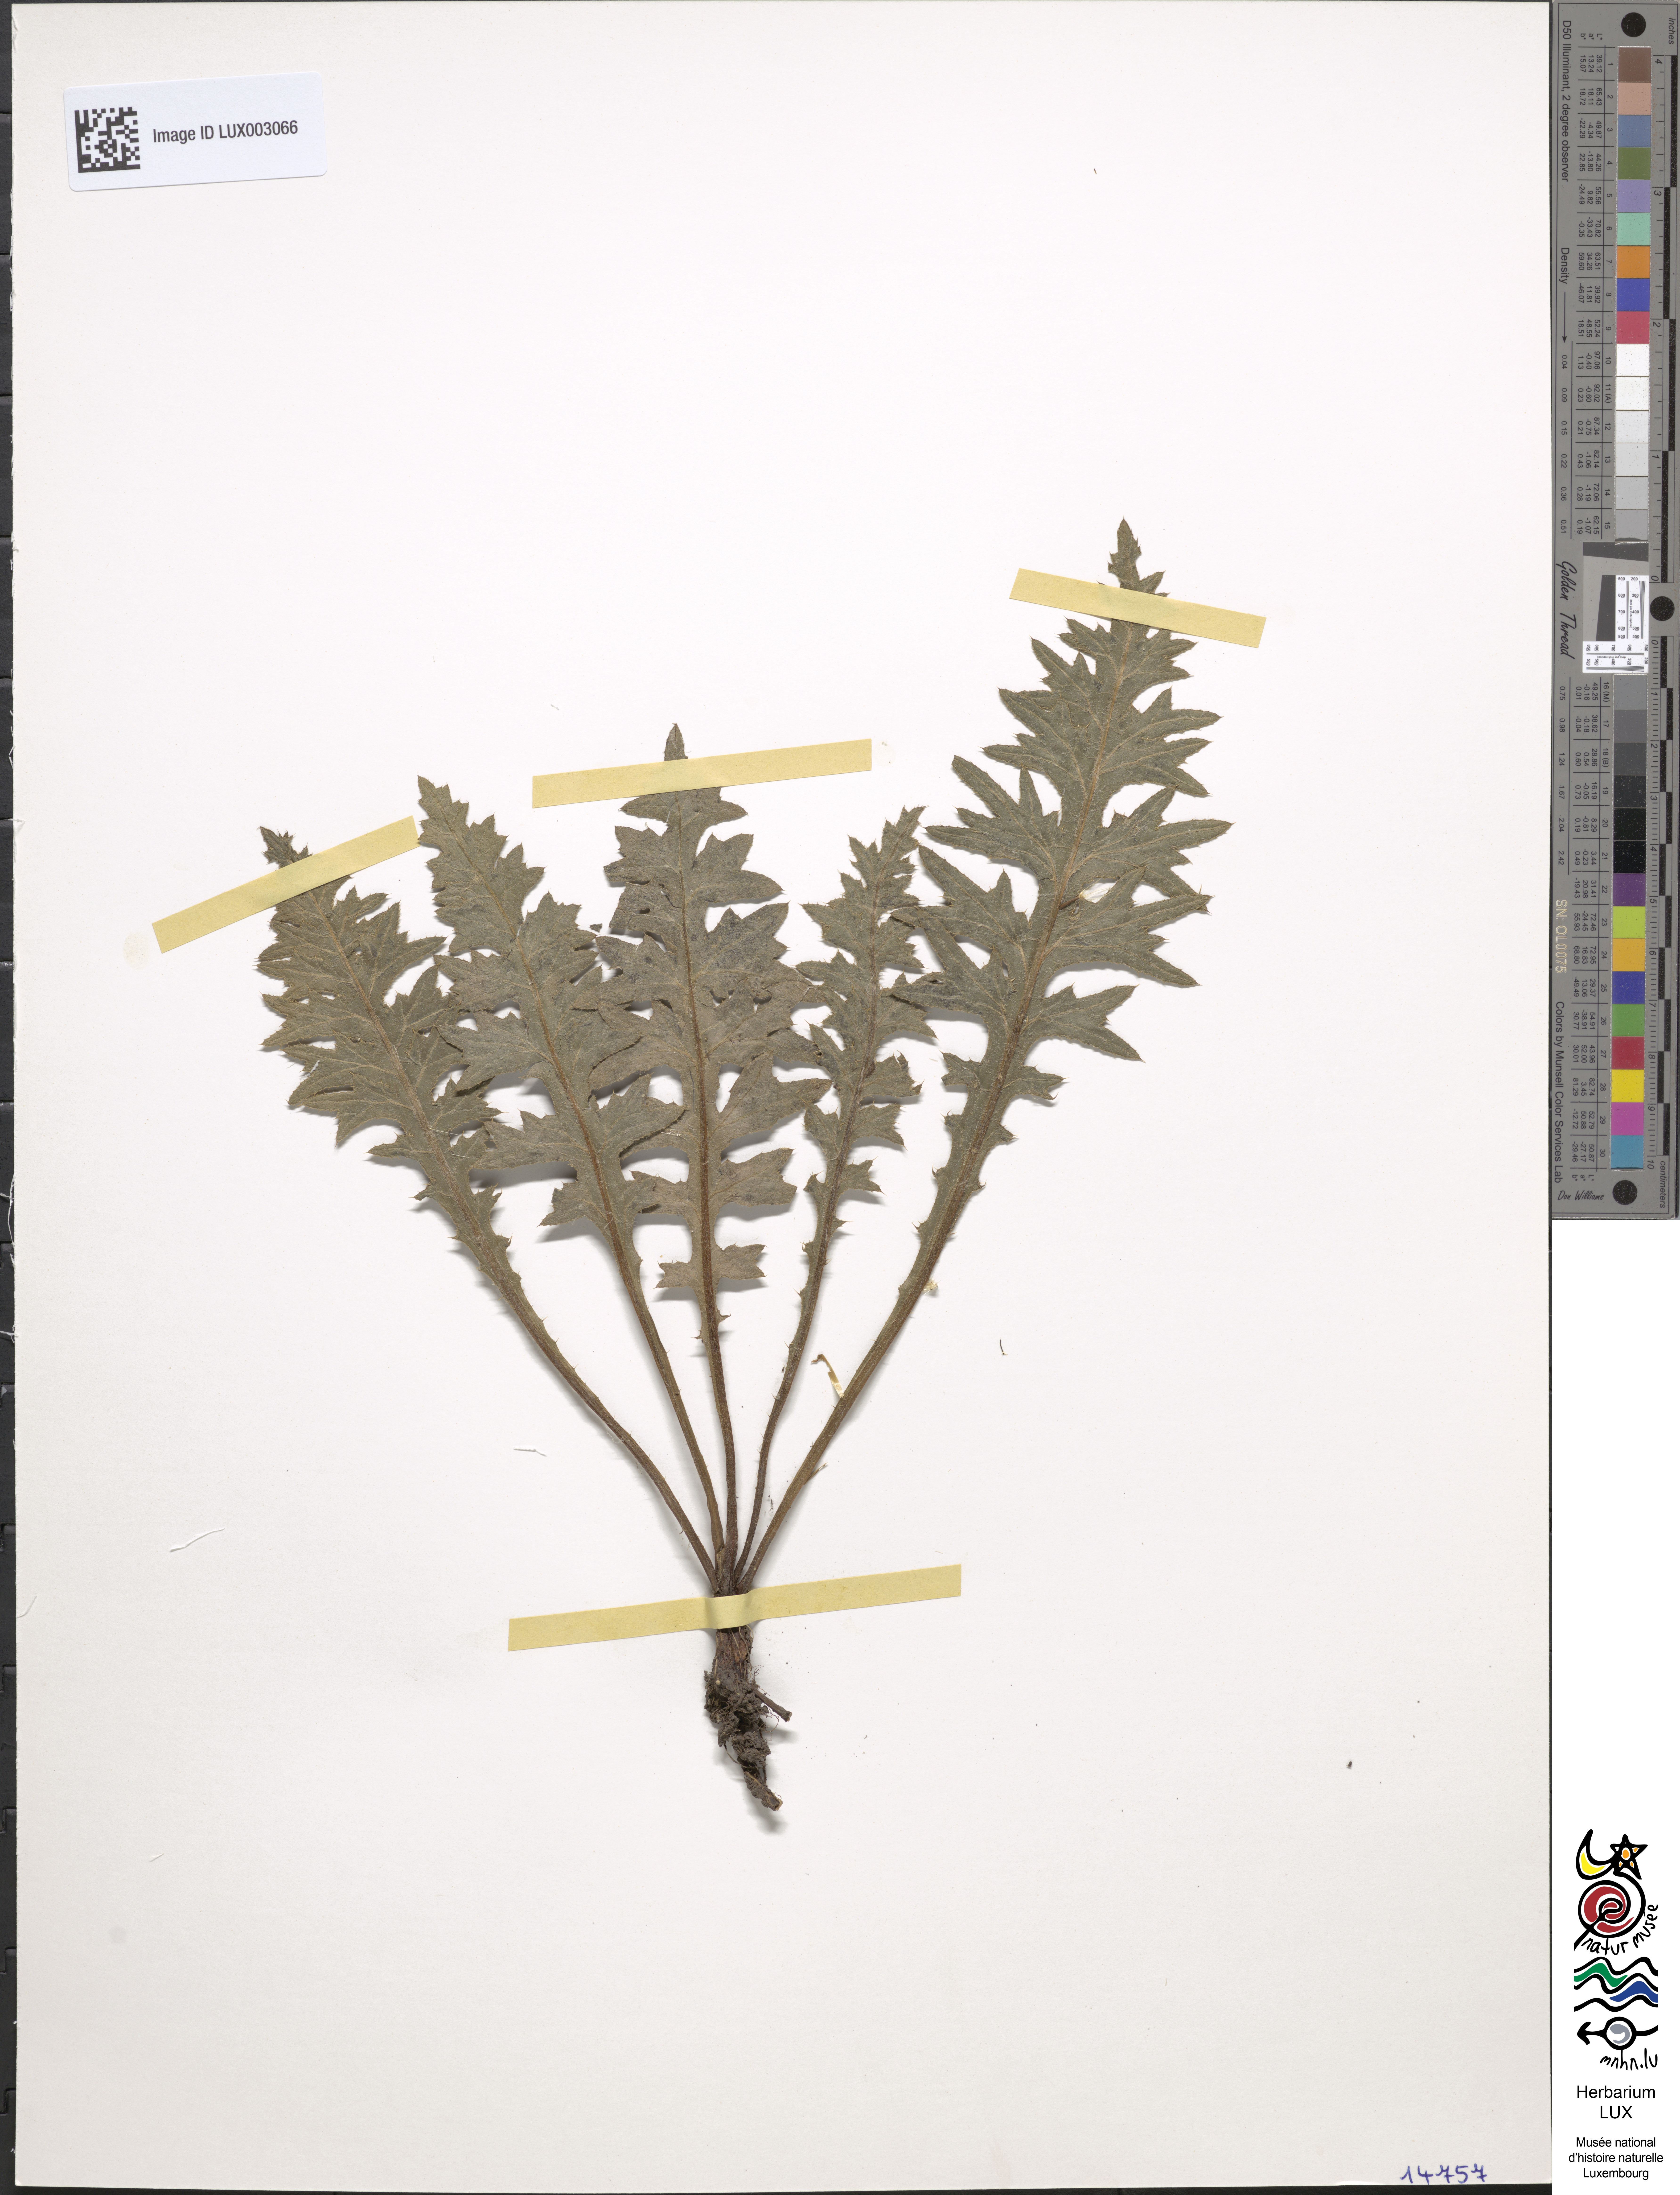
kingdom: Plantae
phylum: Tracheophyta
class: Magnoliopsida
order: Asterales
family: Asteraceae
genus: Cirsium
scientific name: Cirsium tuberosum
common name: Tuberous thistle
